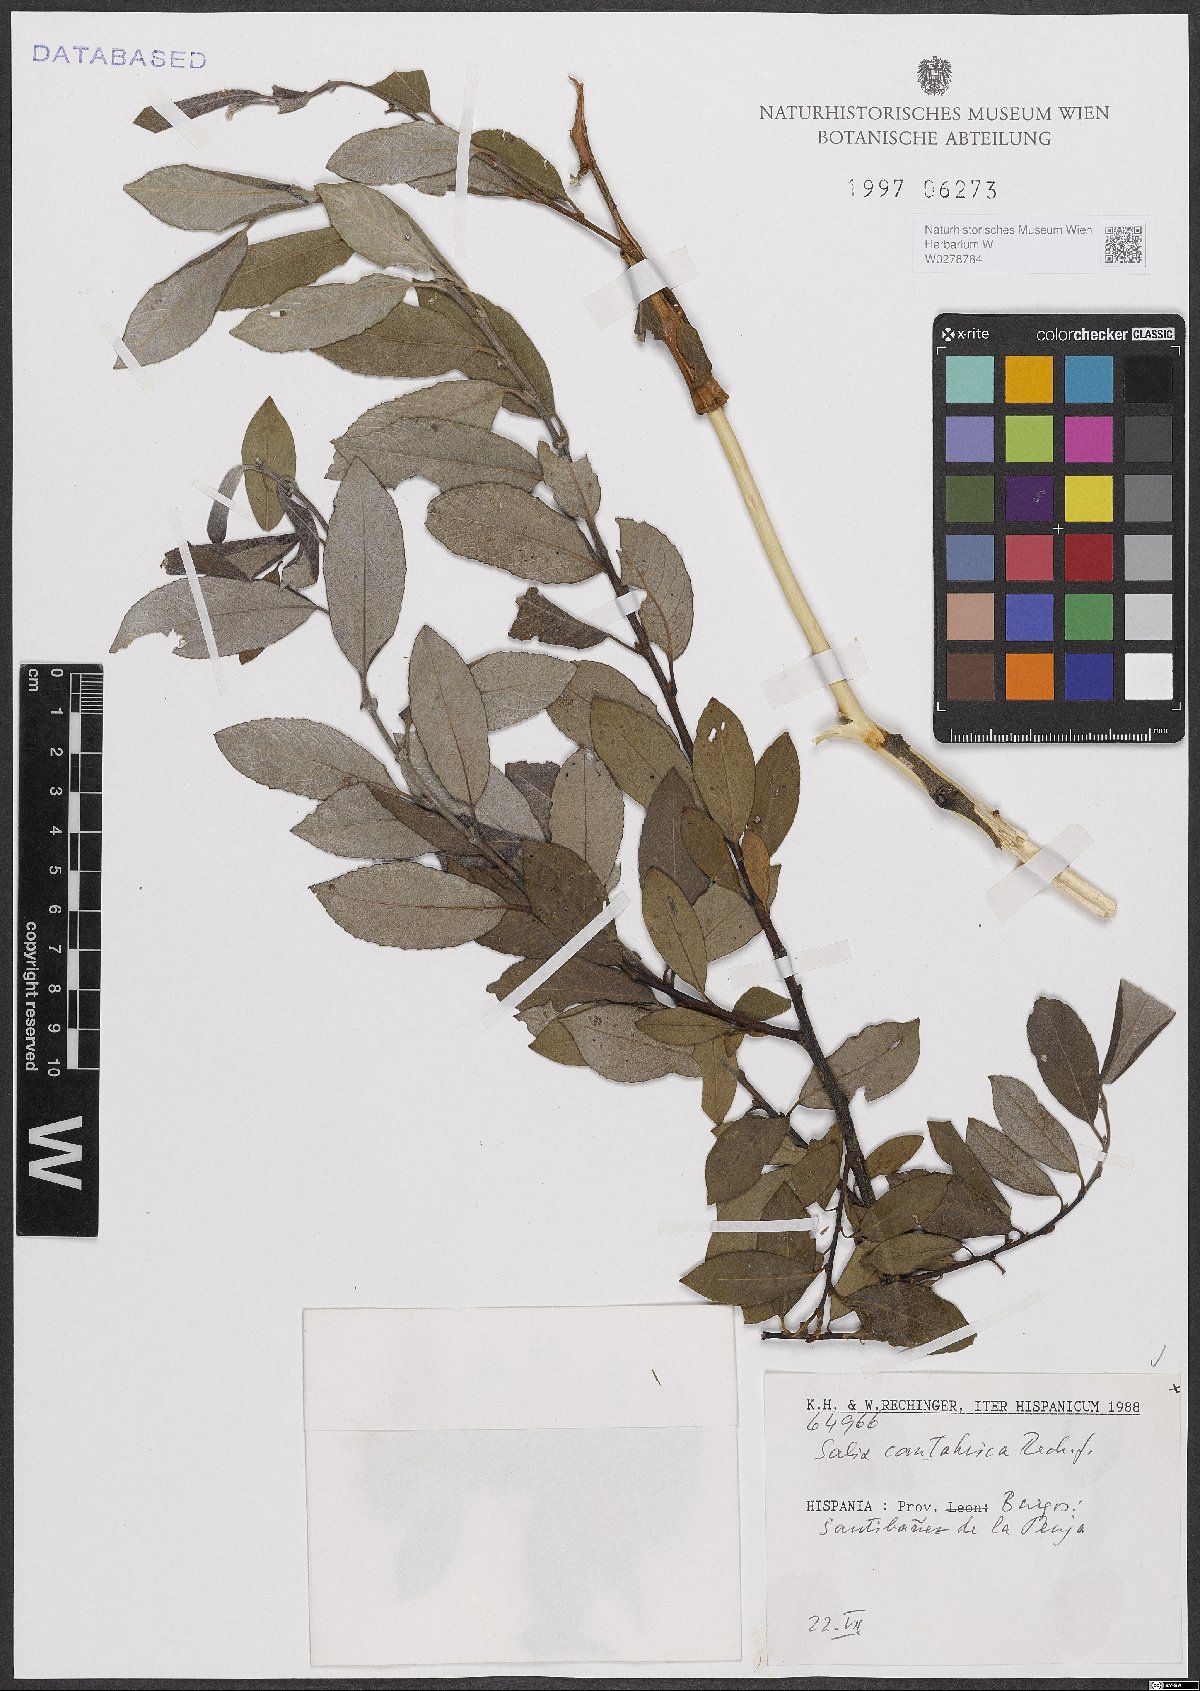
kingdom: Plantae
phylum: Tracheophyta
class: Magnoliopsida
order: Malpighiales
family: Salicaceae
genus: Salix
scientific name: Salix cantabrica
